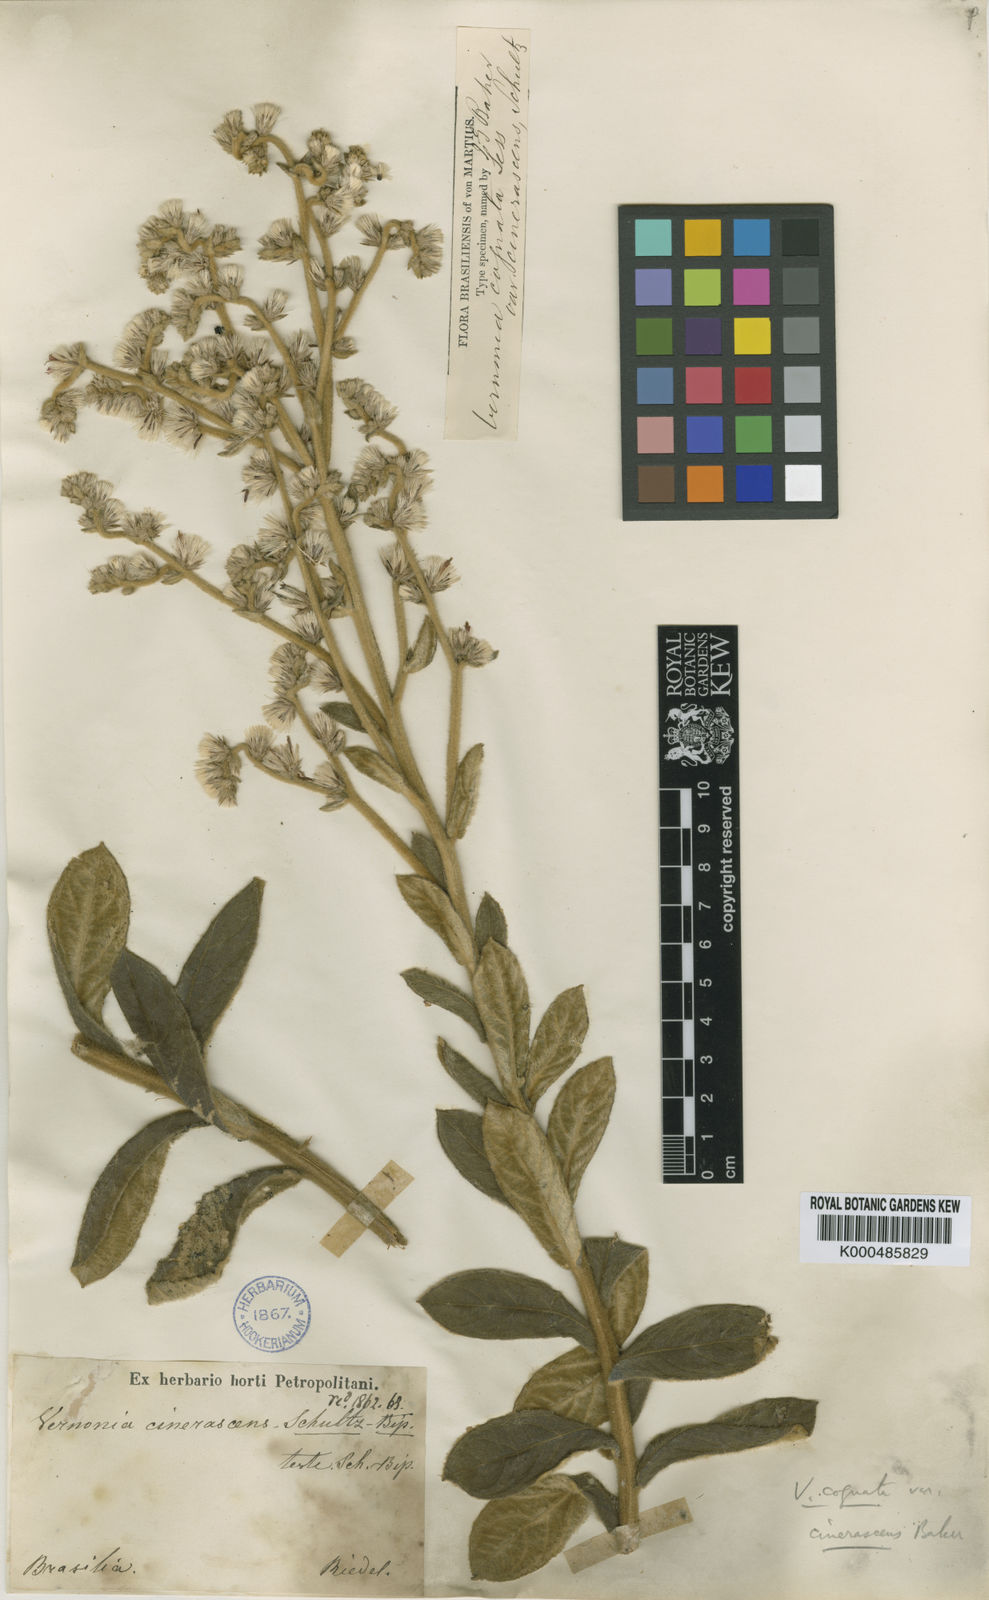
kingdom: Plantae
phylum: Tracheophyta
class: Magnoliopsida
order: Asterales
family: Asteraceae
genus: Chrysolaena
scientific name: Chrysolaena cognata
